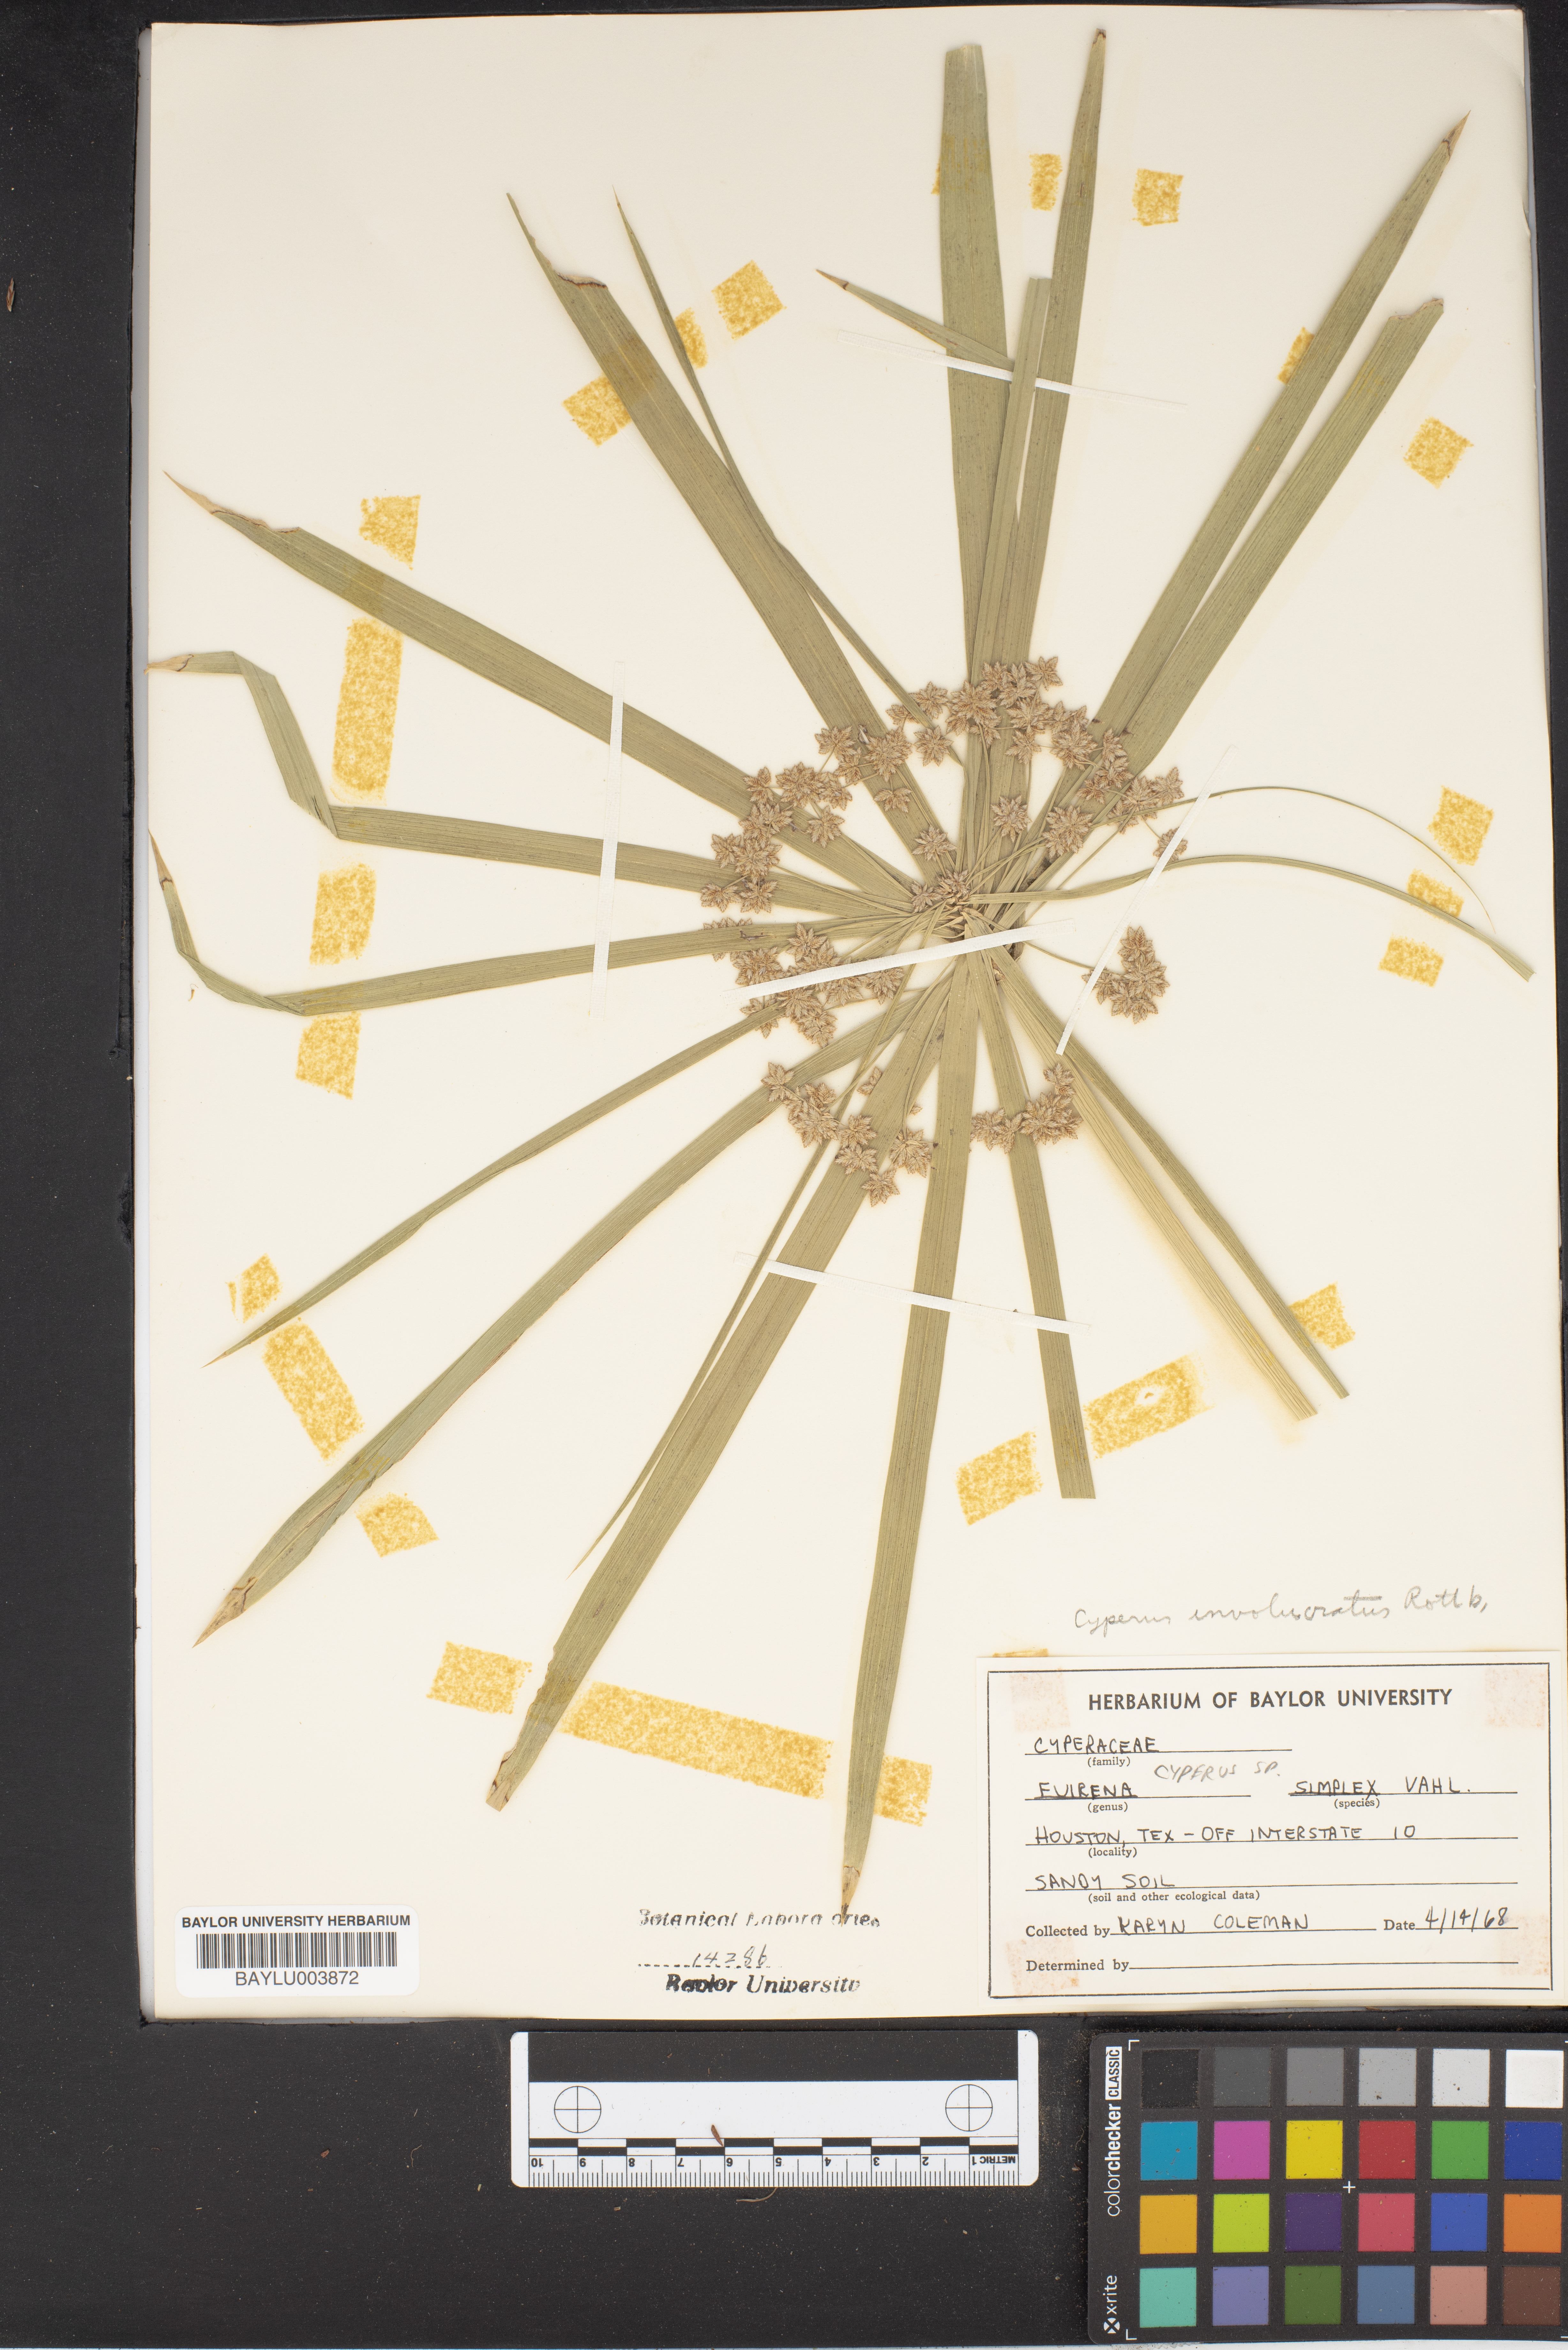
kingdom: Plantae
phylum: Tracheophyta
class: Liliopsida
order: Poales
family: Cyperaceae
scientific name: Cyperaceae
